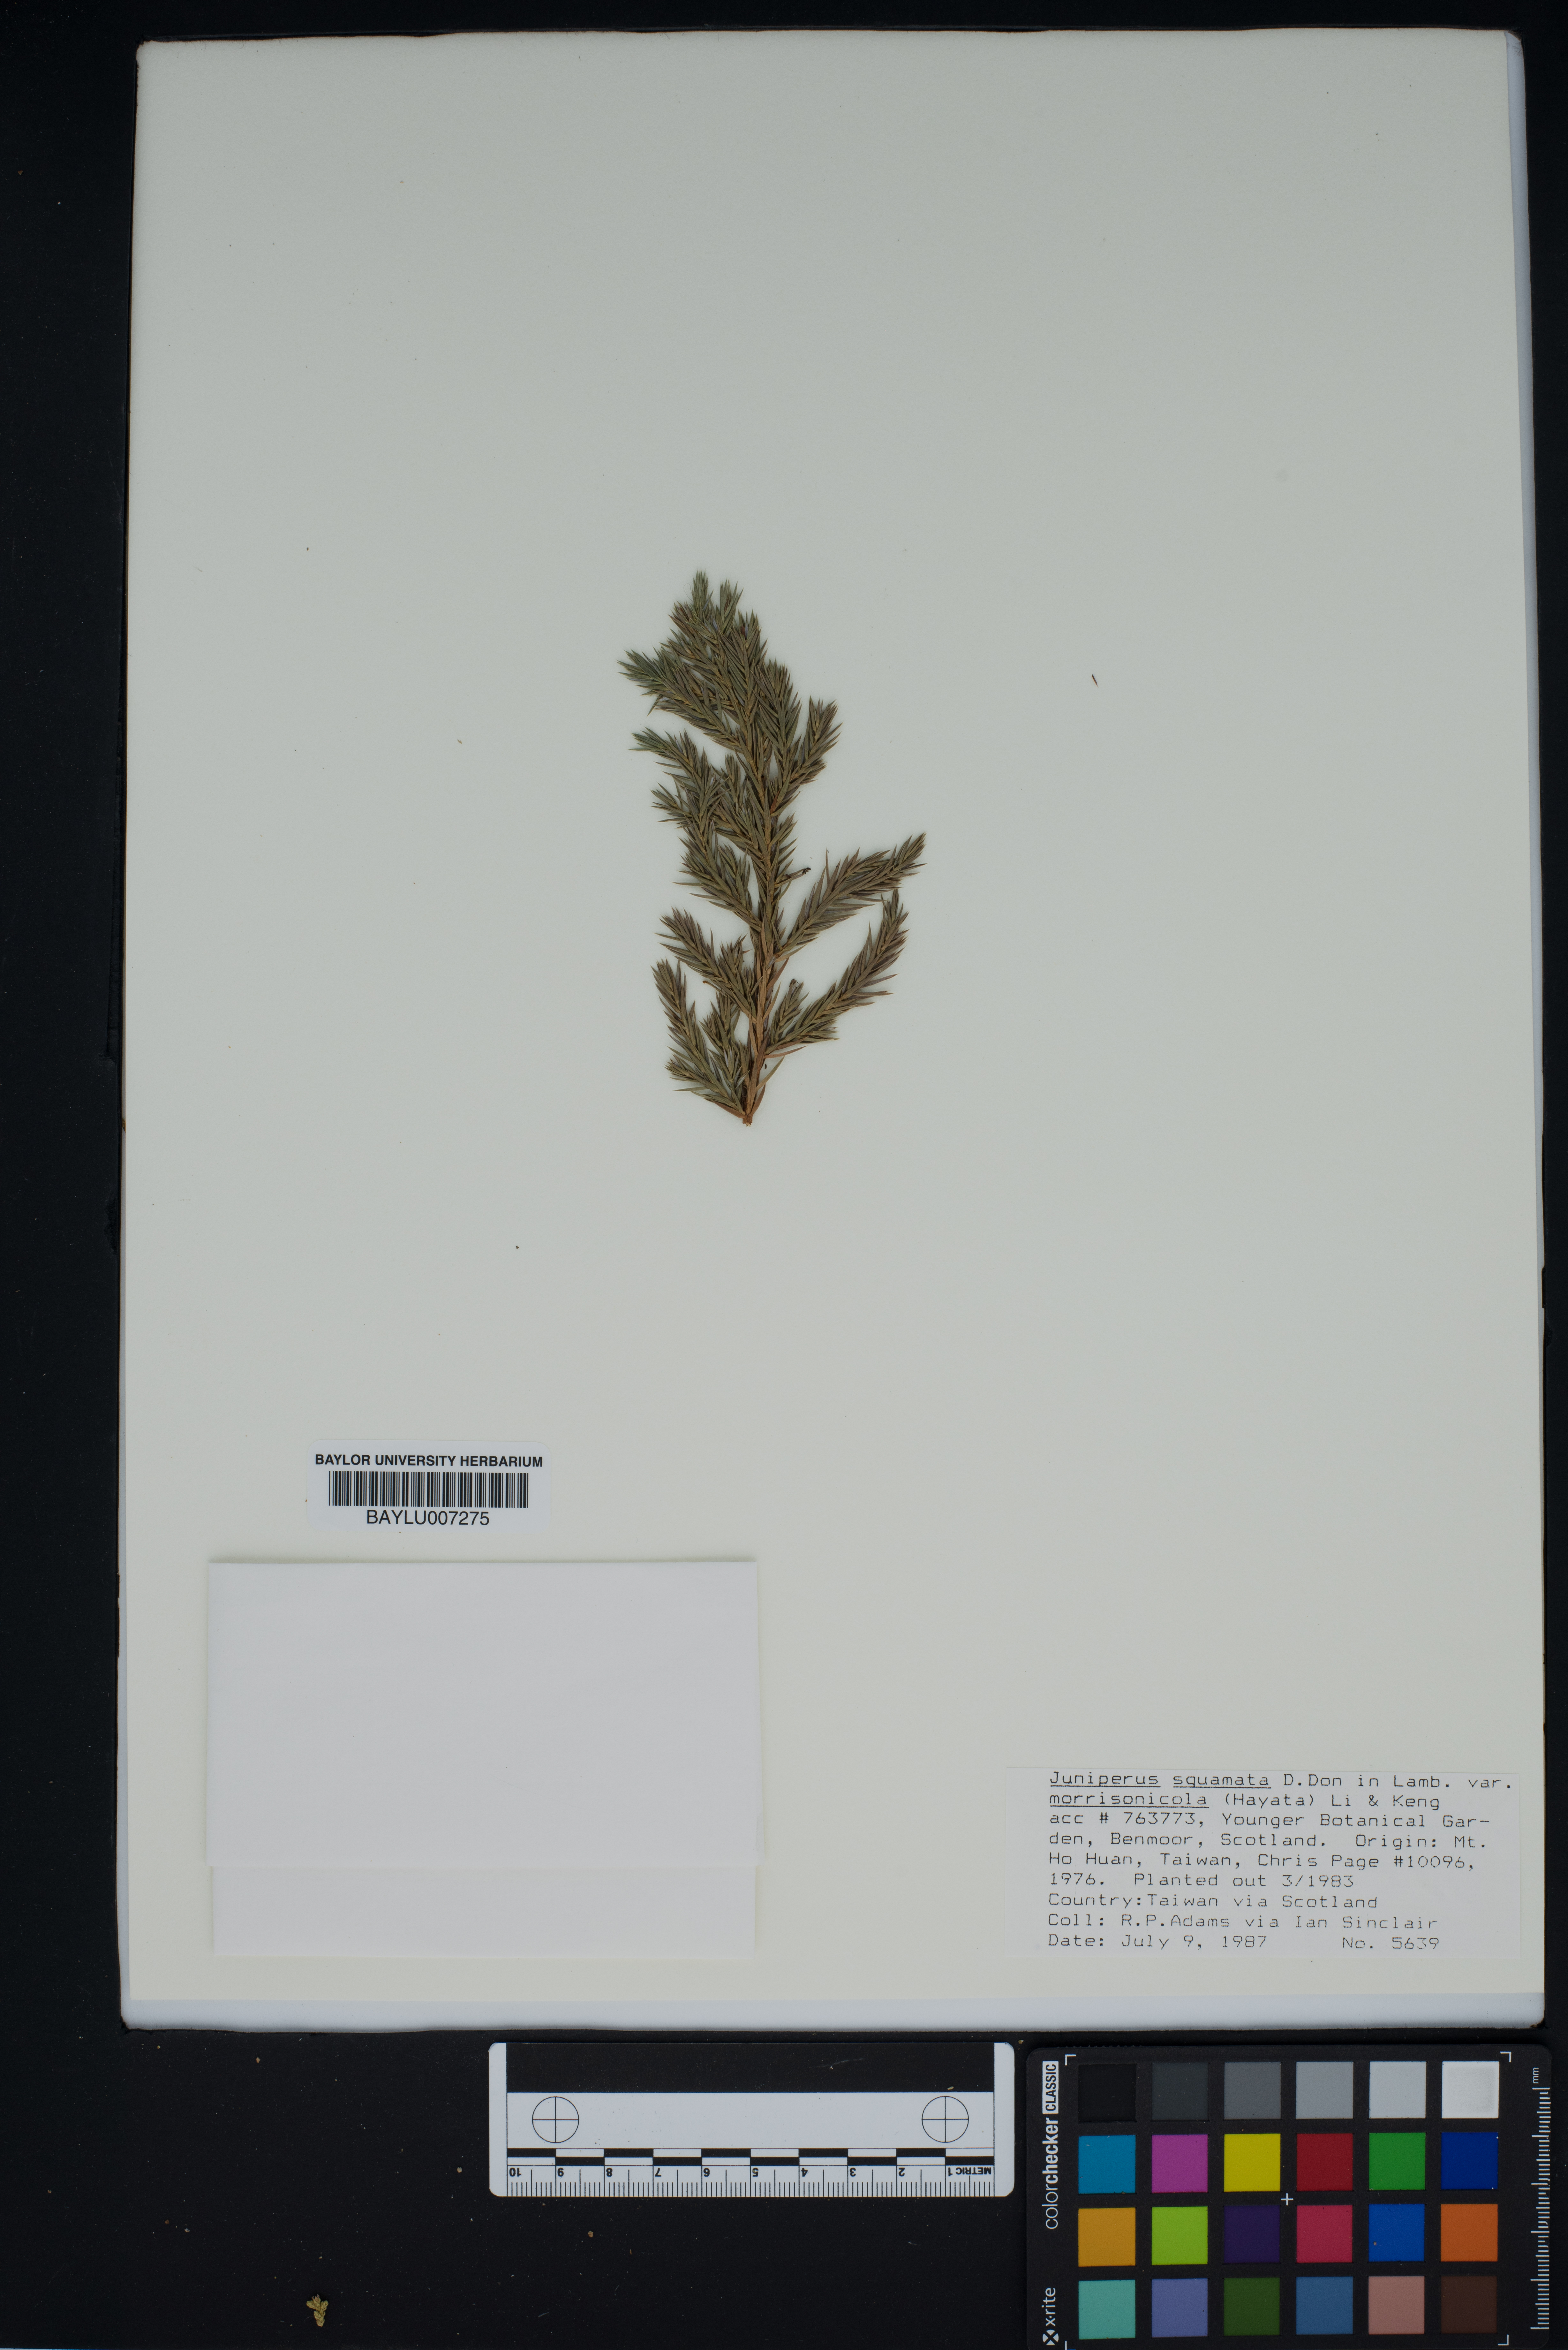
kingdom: Plantae
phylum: Tracheophyta
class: Pinopsida
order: Pinales
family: Cupressaceae
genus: Juniperus
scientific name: Juniperus squamata
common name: Flaky juniper
